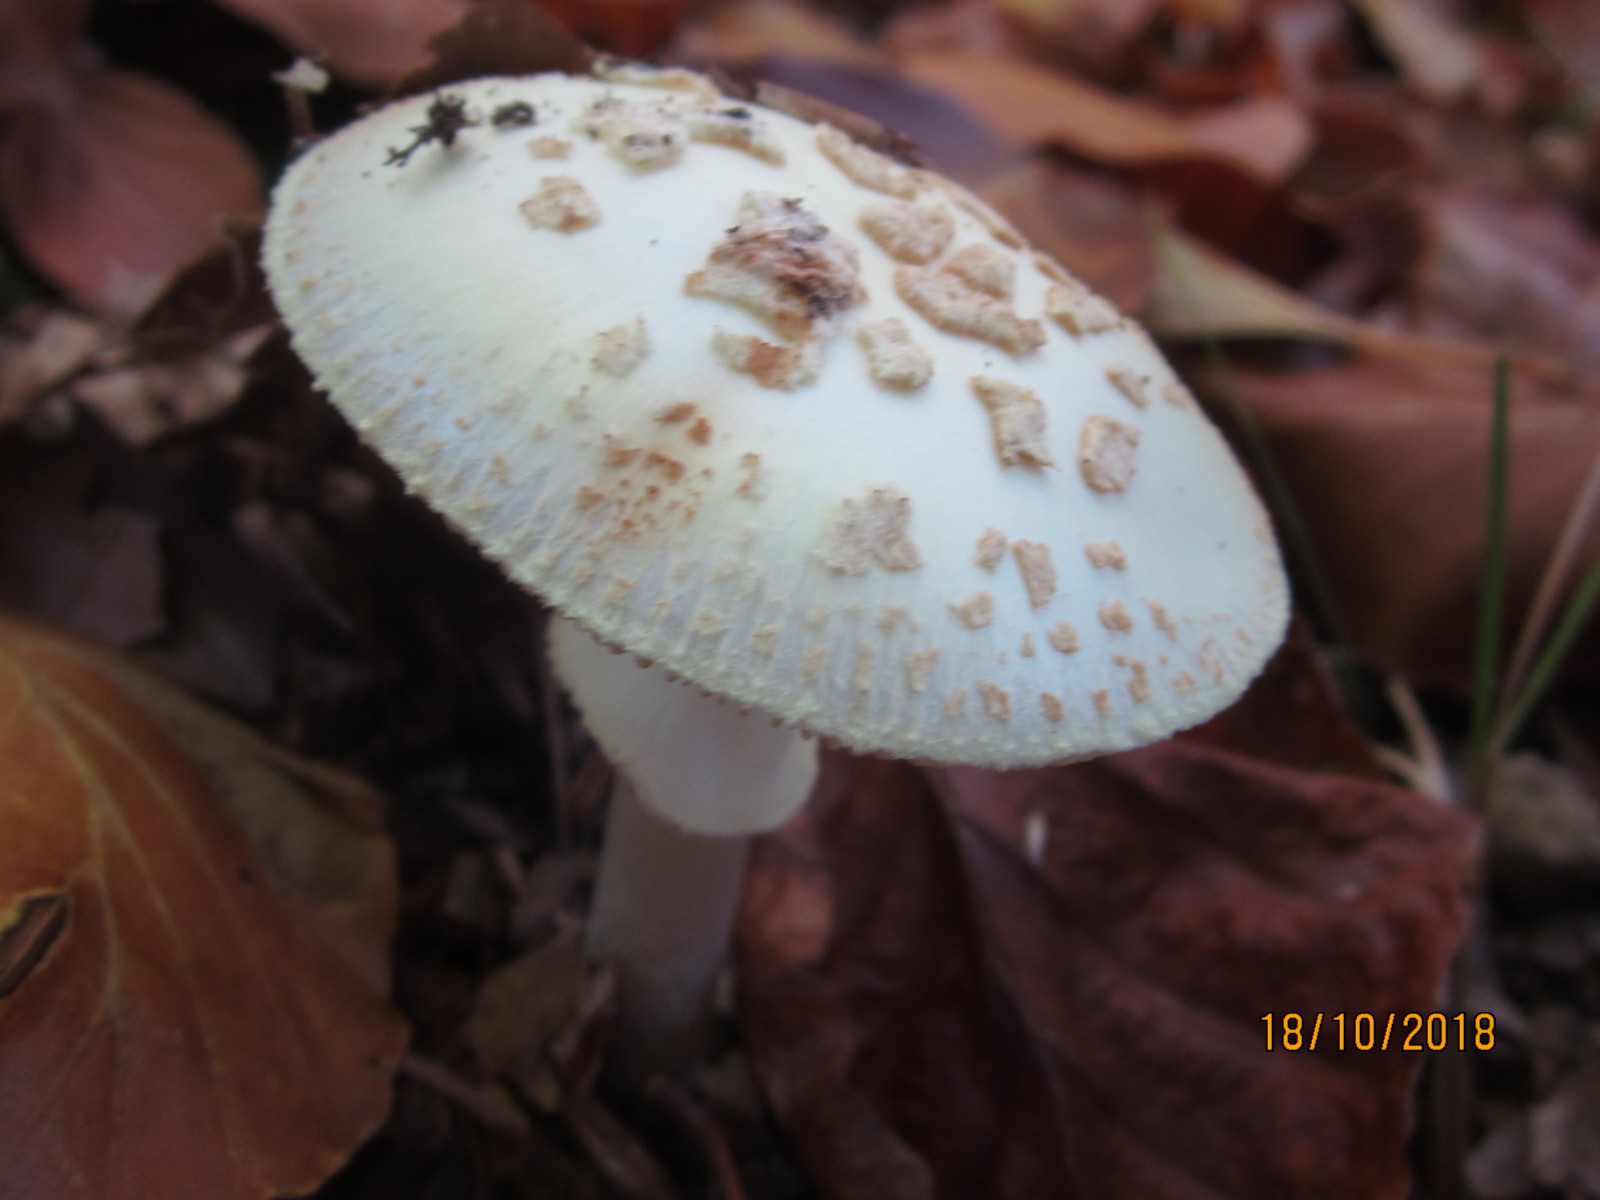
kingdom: Fungi
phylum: Basidiomycota
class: Agaricomycetes
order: Agaricales
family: Amanitaceae
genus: Amanita
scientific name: Amanita citrina
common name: False death-cap
